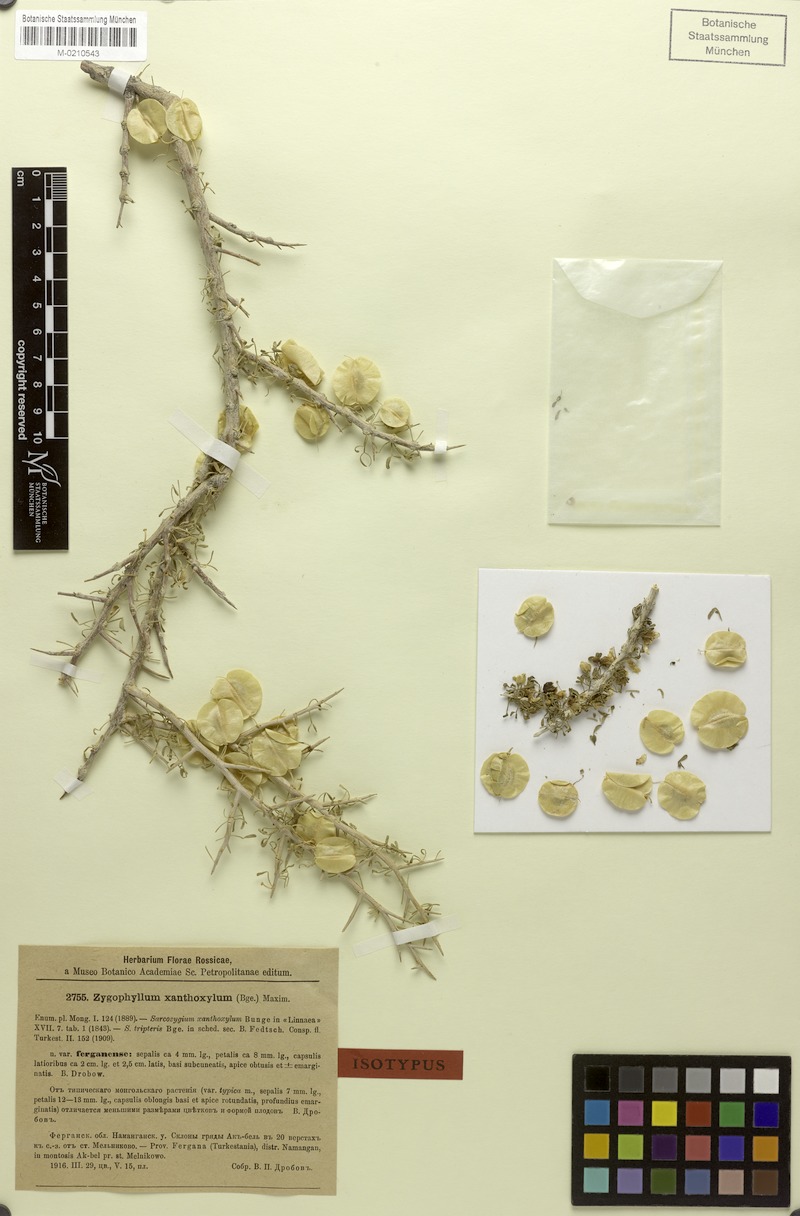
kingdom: Plantae
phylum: Tracheophyta
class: Magnoliopsida
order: Zygophyllales
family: Zygophyllaceae
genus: Zygophyllum
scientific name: Zygophyllum xanthoxylum
